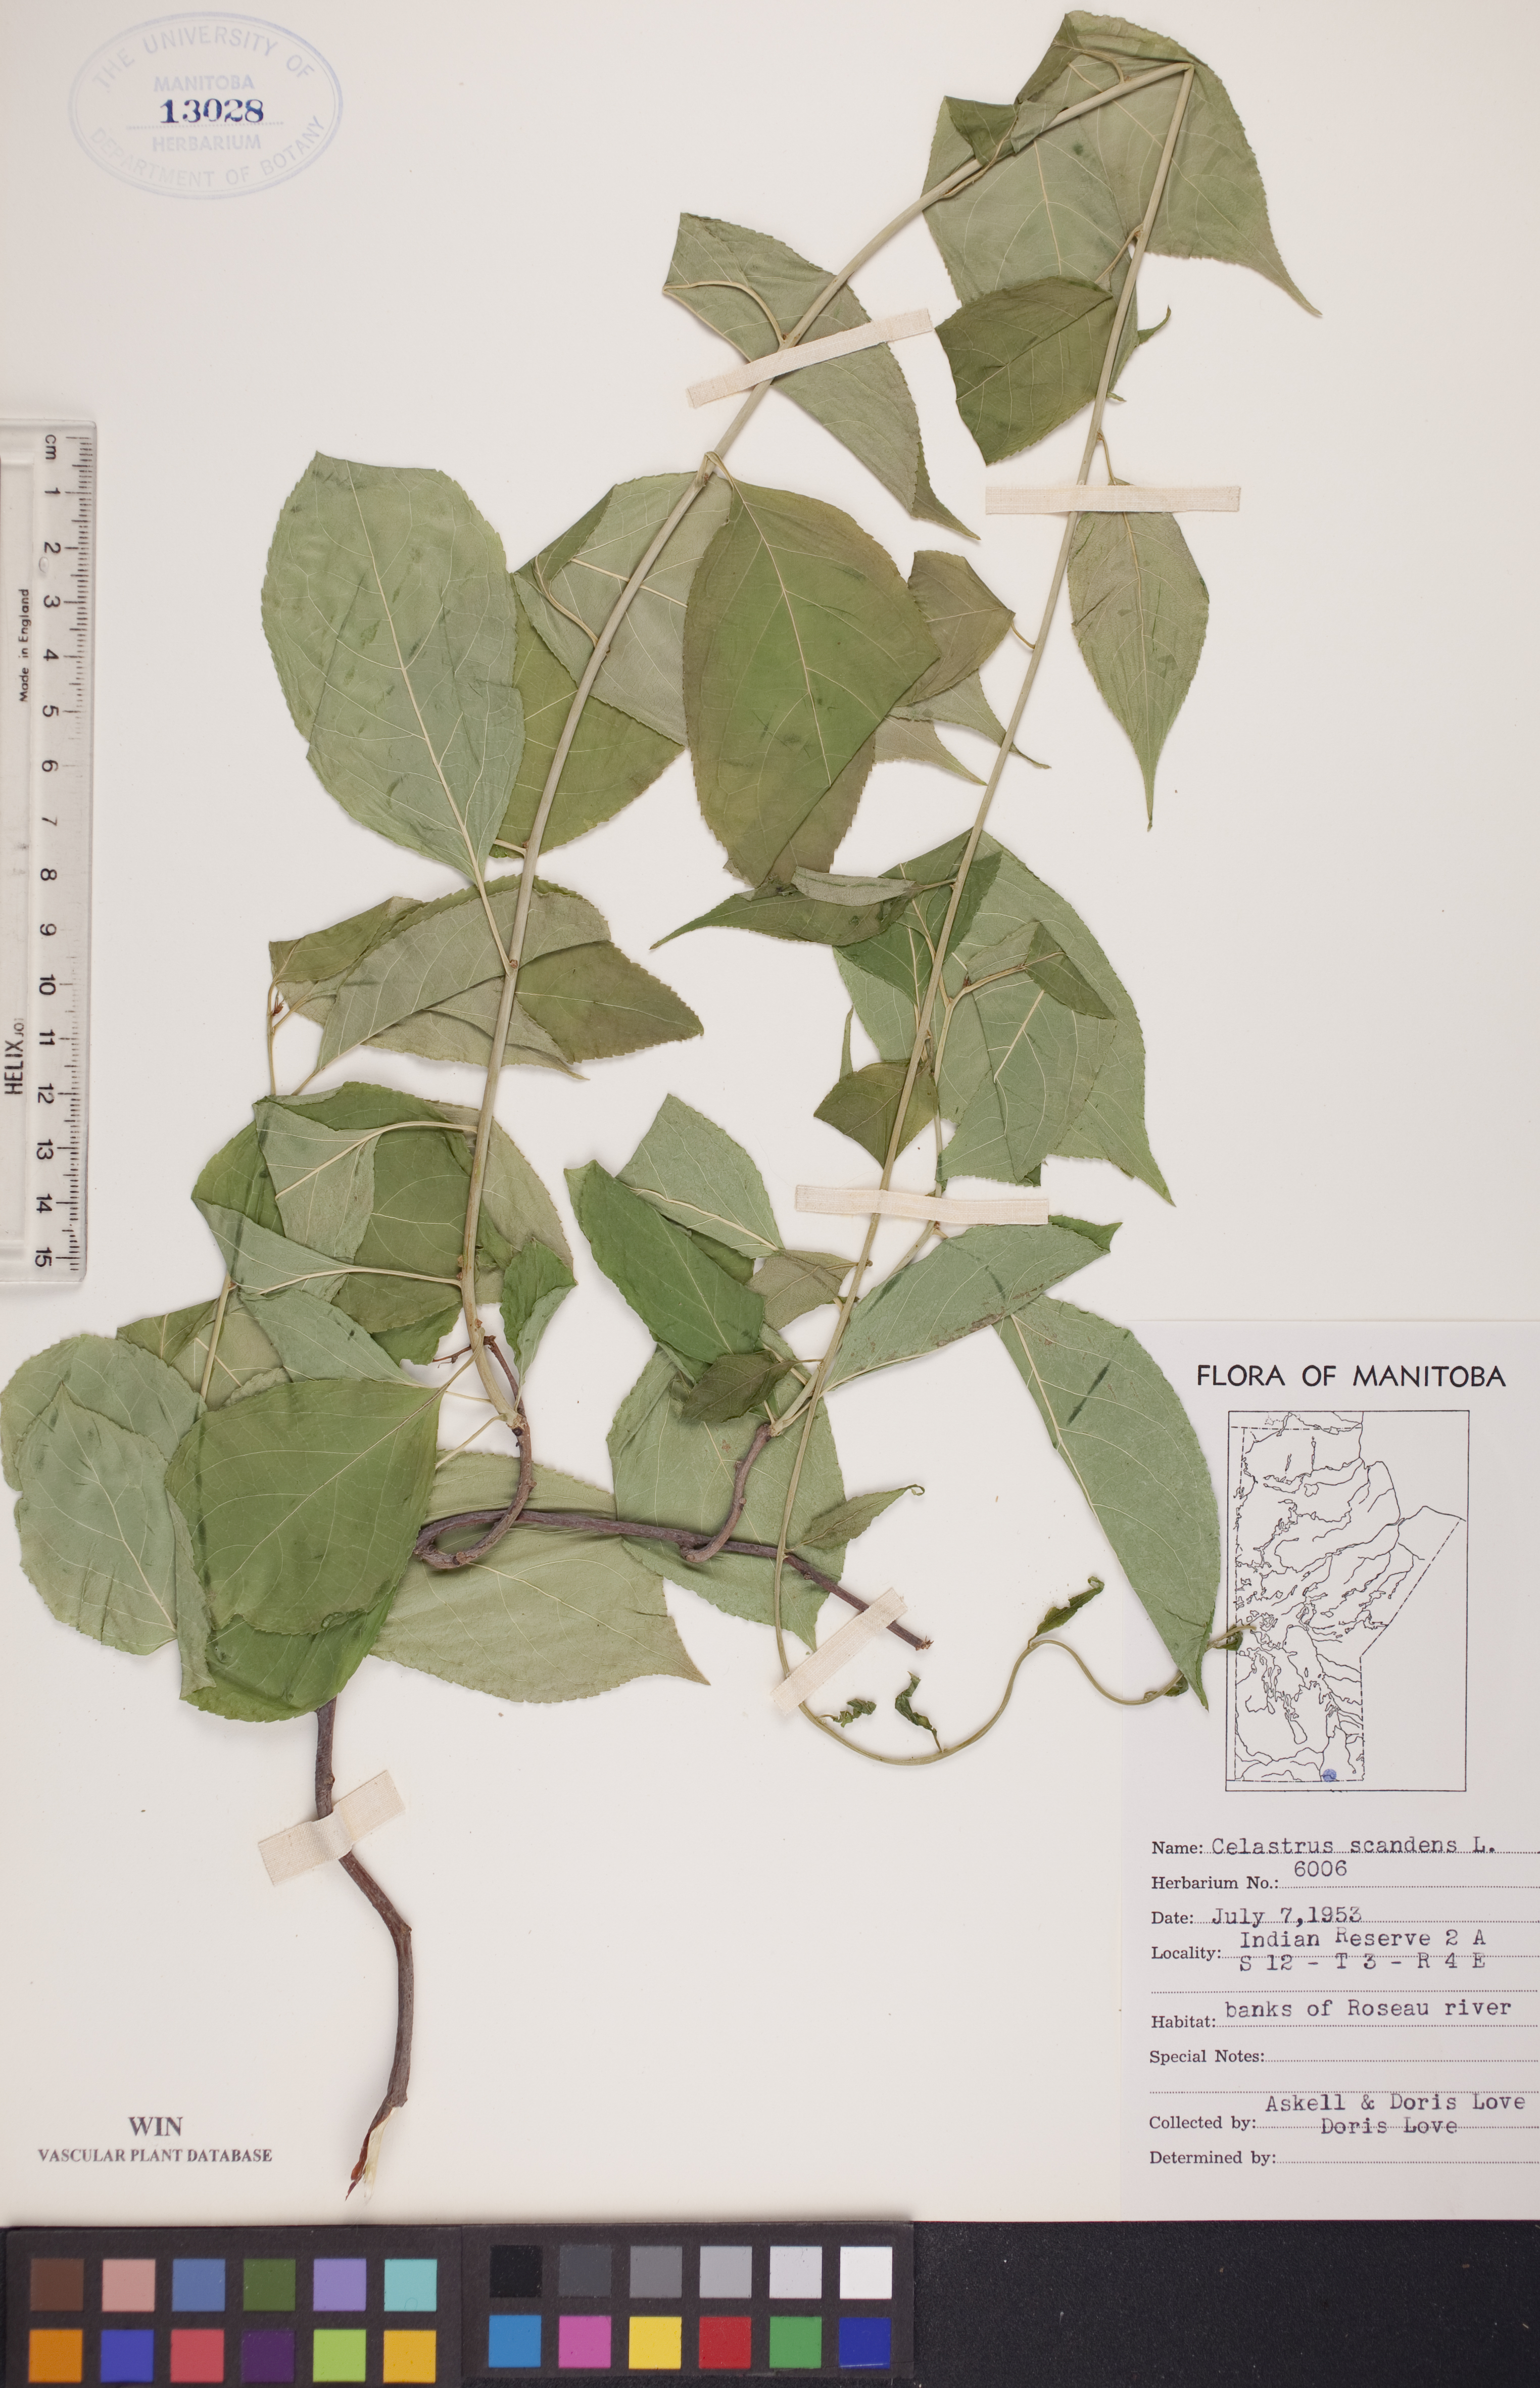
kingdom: Plantae
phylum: Tracheophyta
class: Magnoliopsida
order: Celastrales
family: Celastraceae
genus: Celastrus
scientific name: Celastrus scandens
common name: American bittersweet
